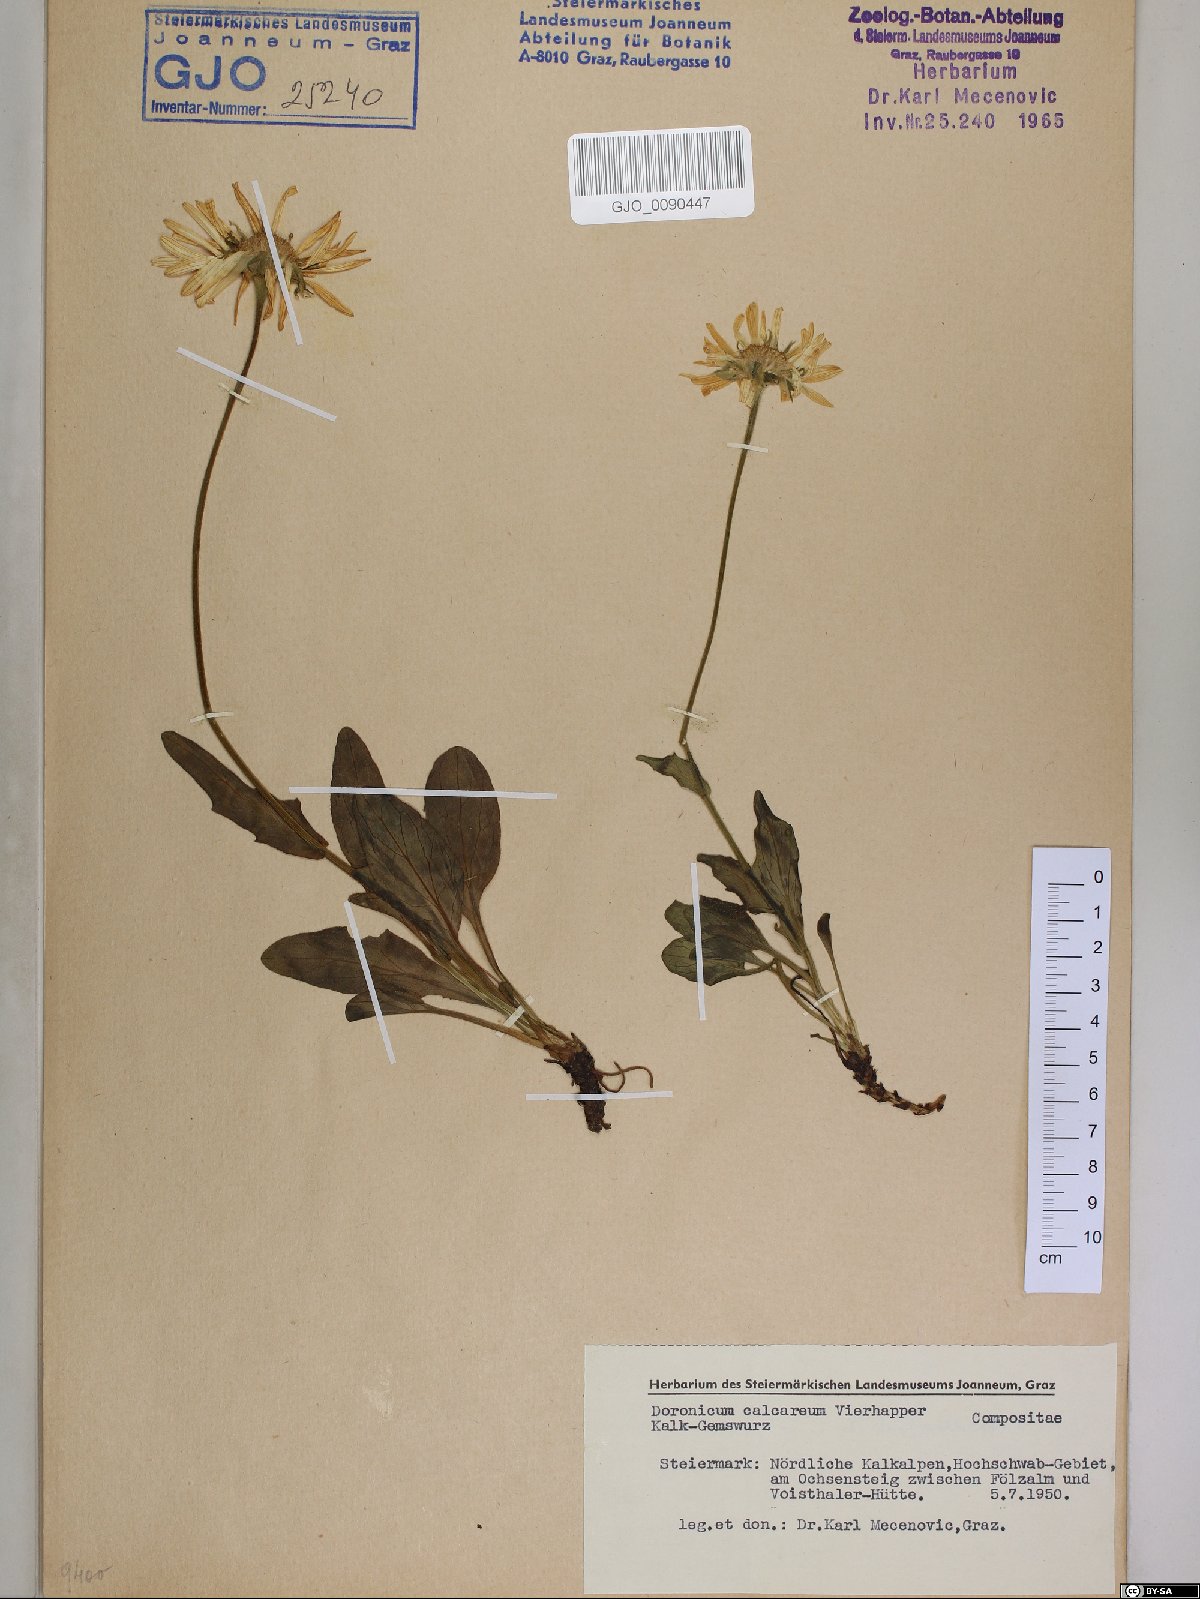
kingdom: Plantae
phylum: Tracheophyta
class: Magnoliopsida
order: Asterales
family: Asteraceae
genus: Doronicum
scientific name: Doronicum glaciale
